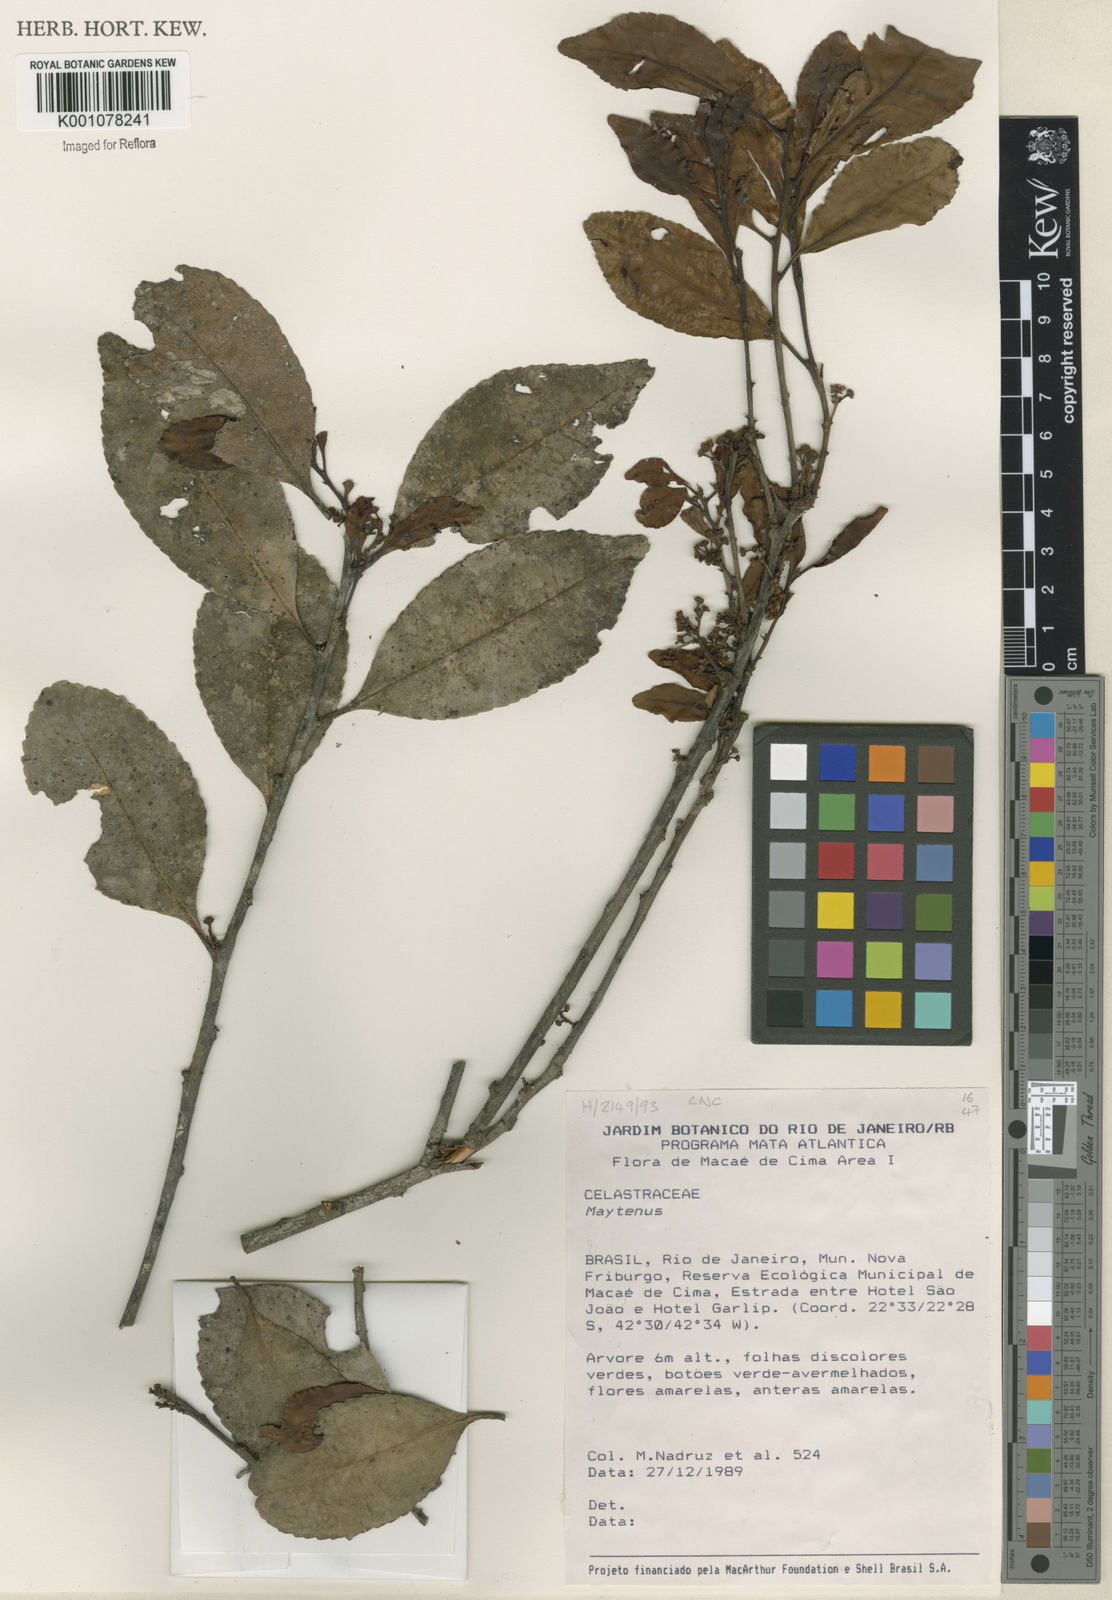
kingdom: Plantae
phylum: Tracheophyta
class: Magnoliopsida
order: Celastrales
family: Celastraceae
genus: Maytenus
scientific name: Maytenus
